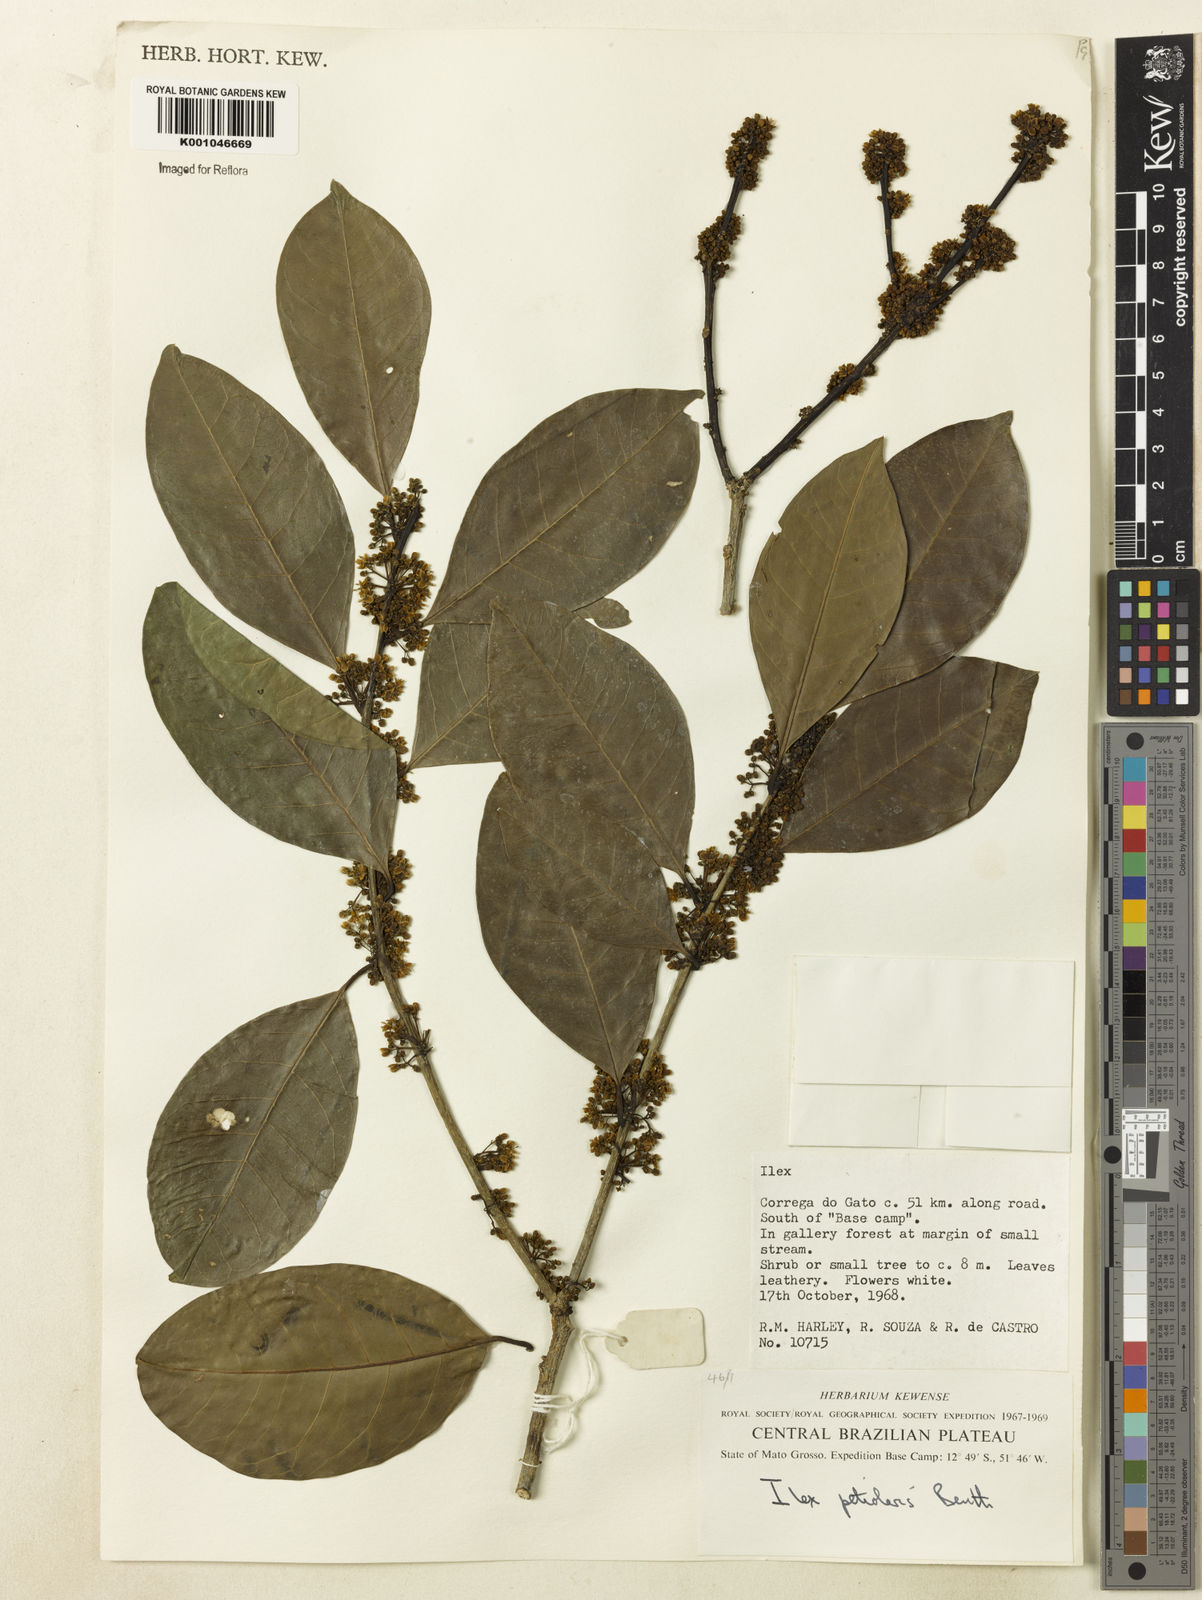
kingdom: Plantae
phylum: Tracheophyta
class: Magnoliopsida
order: Aquifoliales
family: Aquifoliaceae
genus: Ilex
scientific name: Ilex lundii
